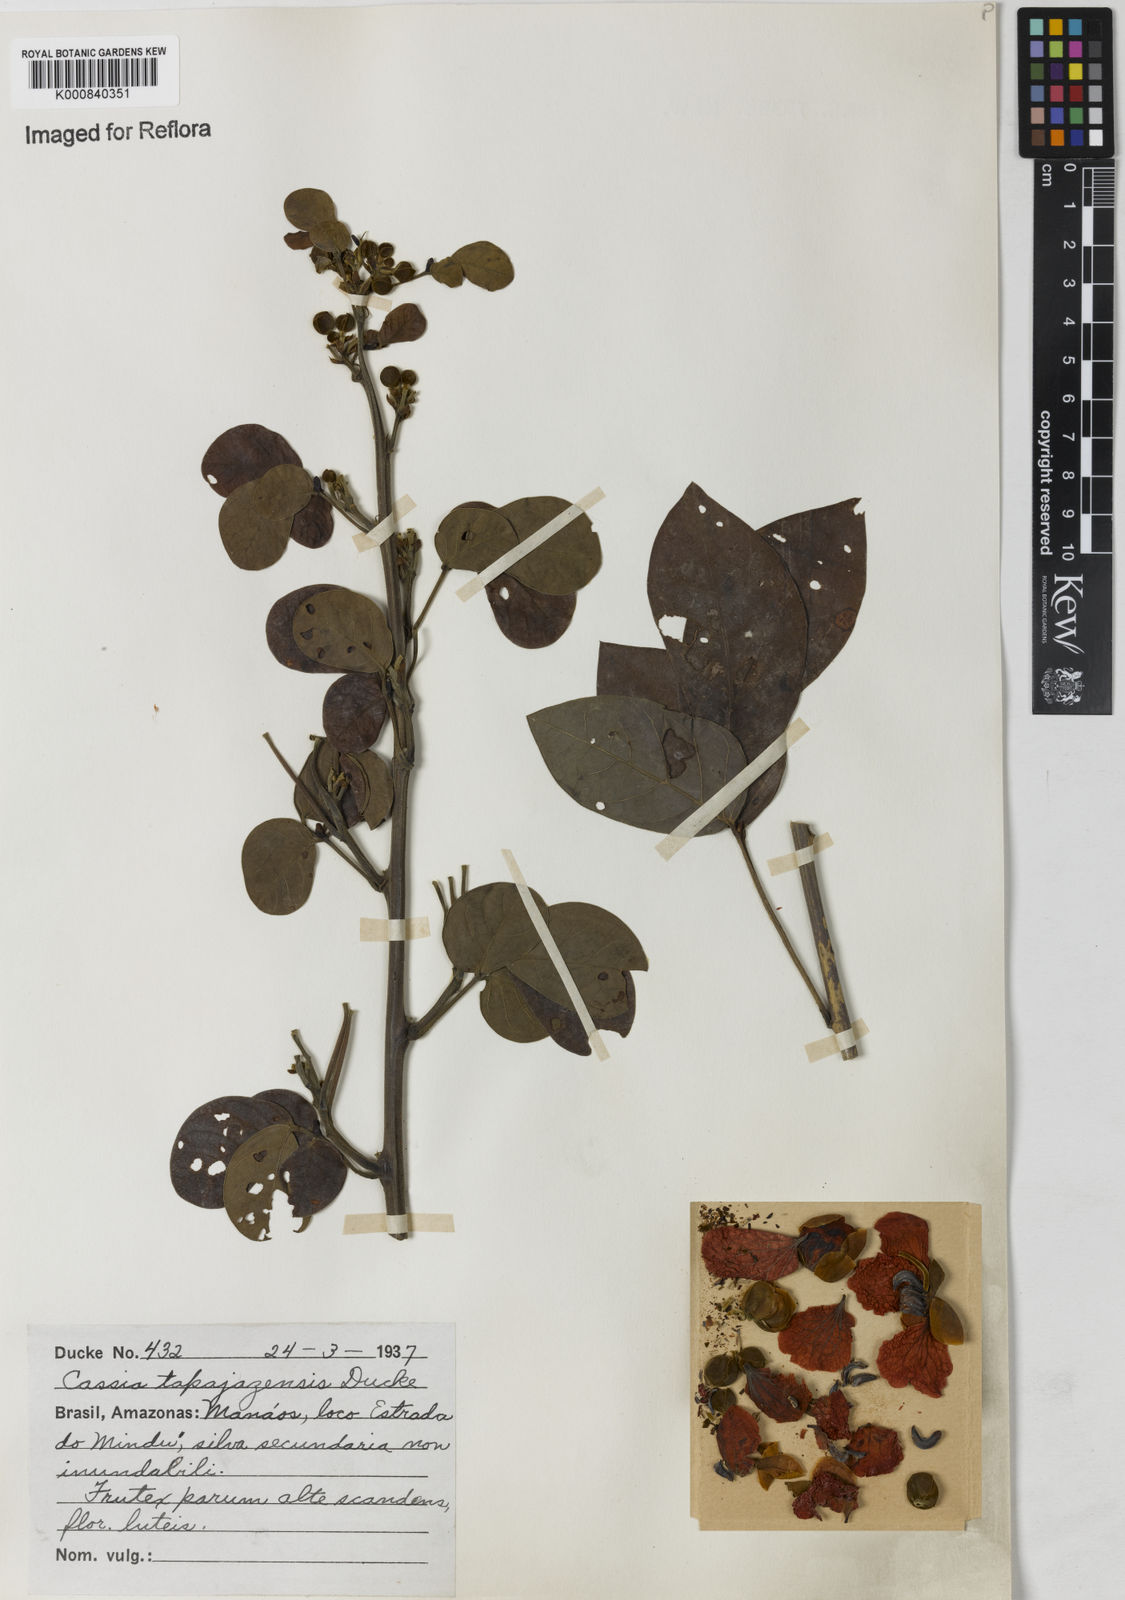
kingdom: Plantae
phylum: Tracheophyta
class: Magnoliopsida
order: Fabales
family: Fabaceae
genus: Senna
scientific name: Senna tapajozensis
